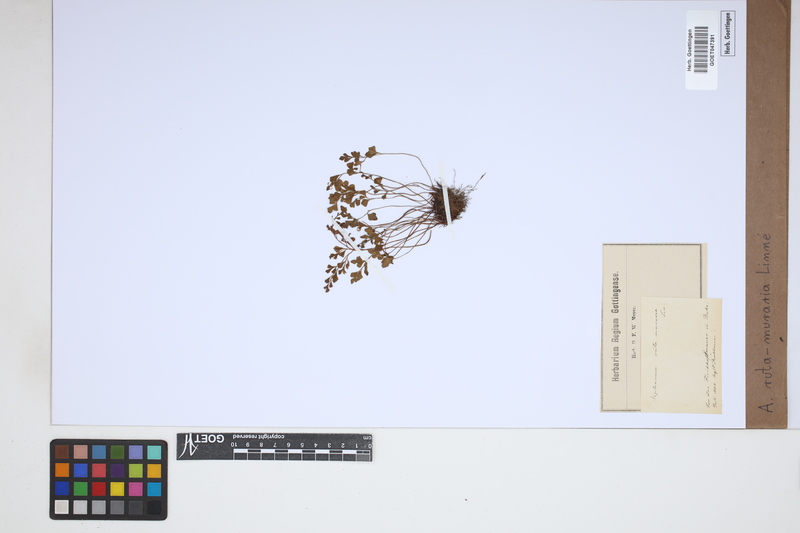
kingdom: Plantae
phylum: Tracheophyta
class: Polypodiopsida
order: Polypodiales
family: Aspleniaceae
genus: Asplenium
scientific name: Asplenium ruta-muraria
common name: Wall-rue
